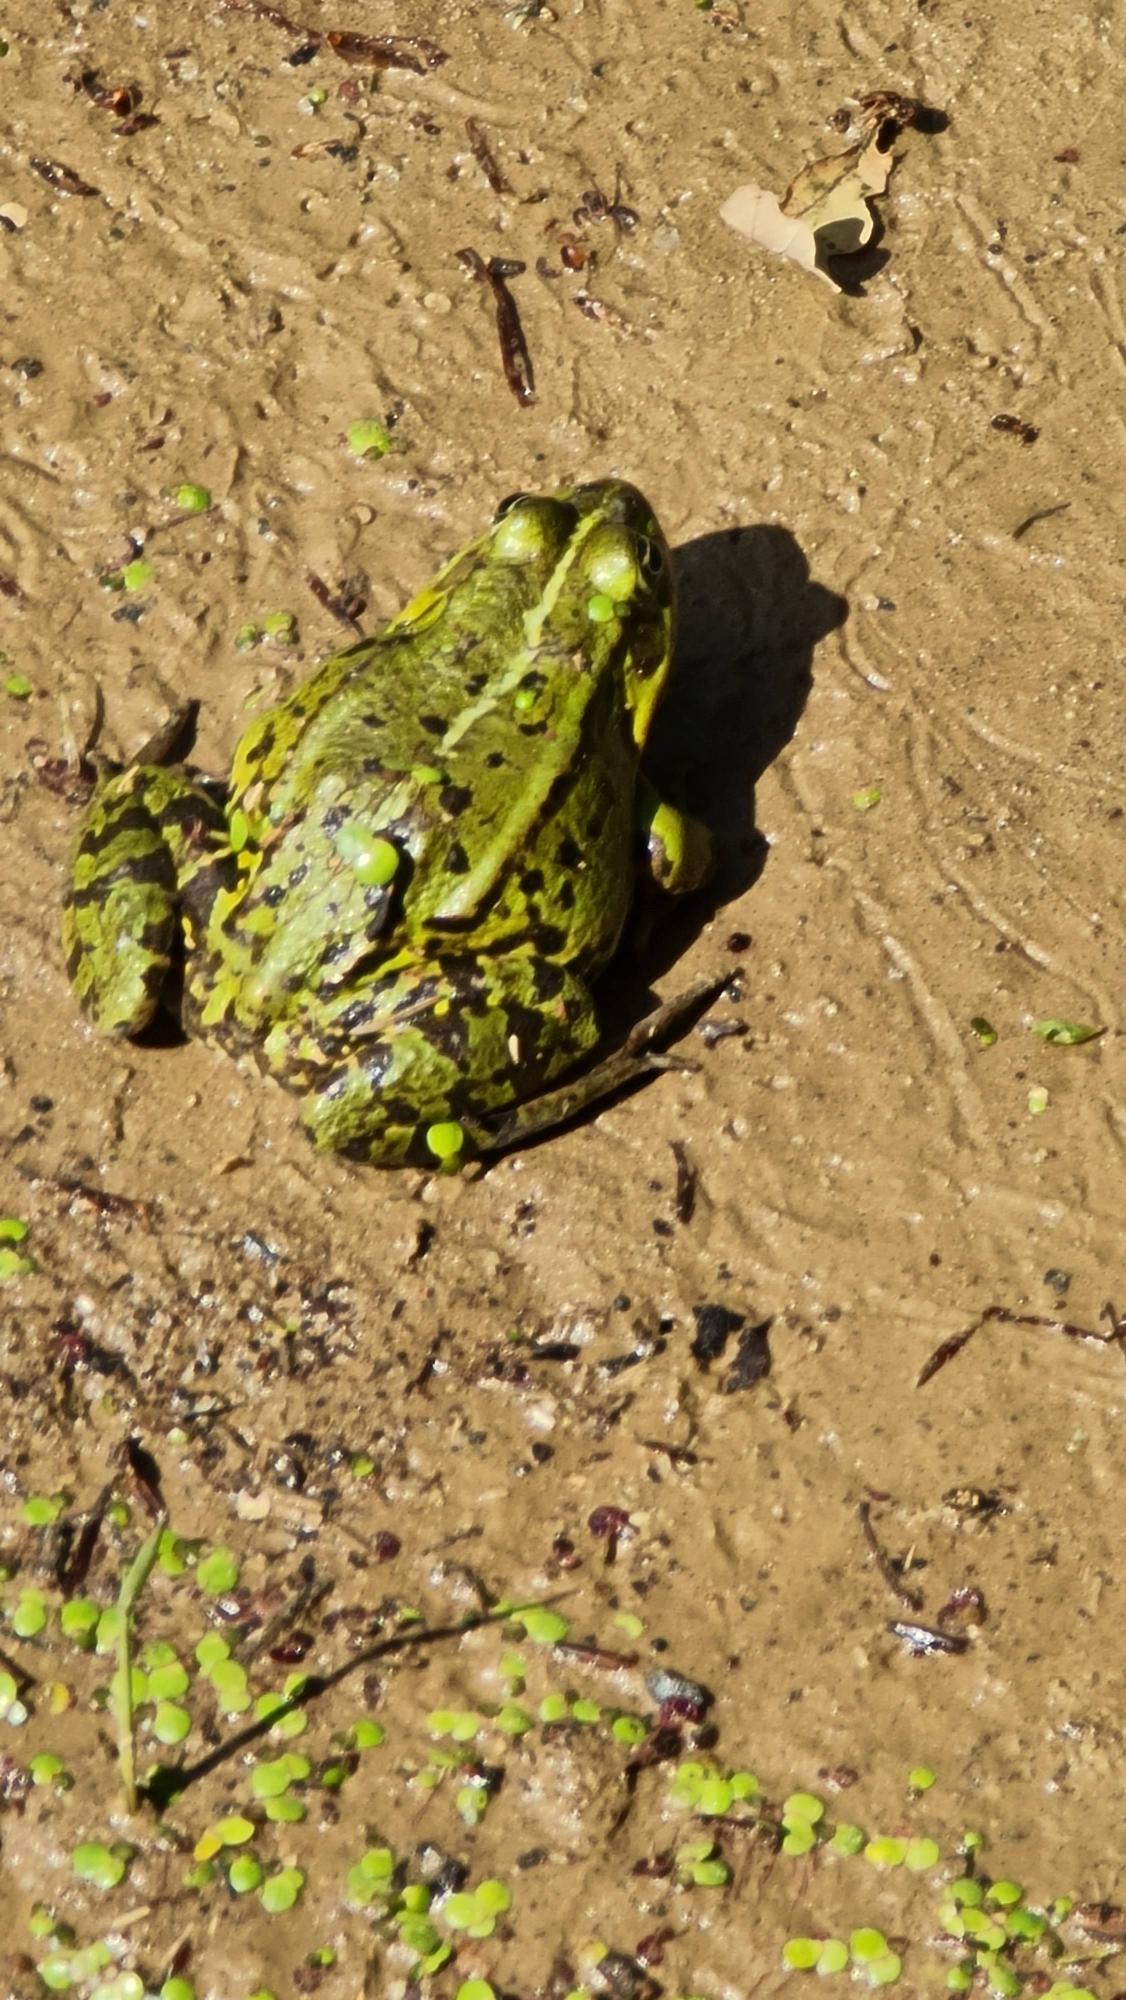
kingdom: Animalia
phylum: Chordata
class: Amphibia
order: Anura
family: Ranidae
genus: Pelophylax
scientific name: Pelophylax lessonae
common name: Grøn frø
